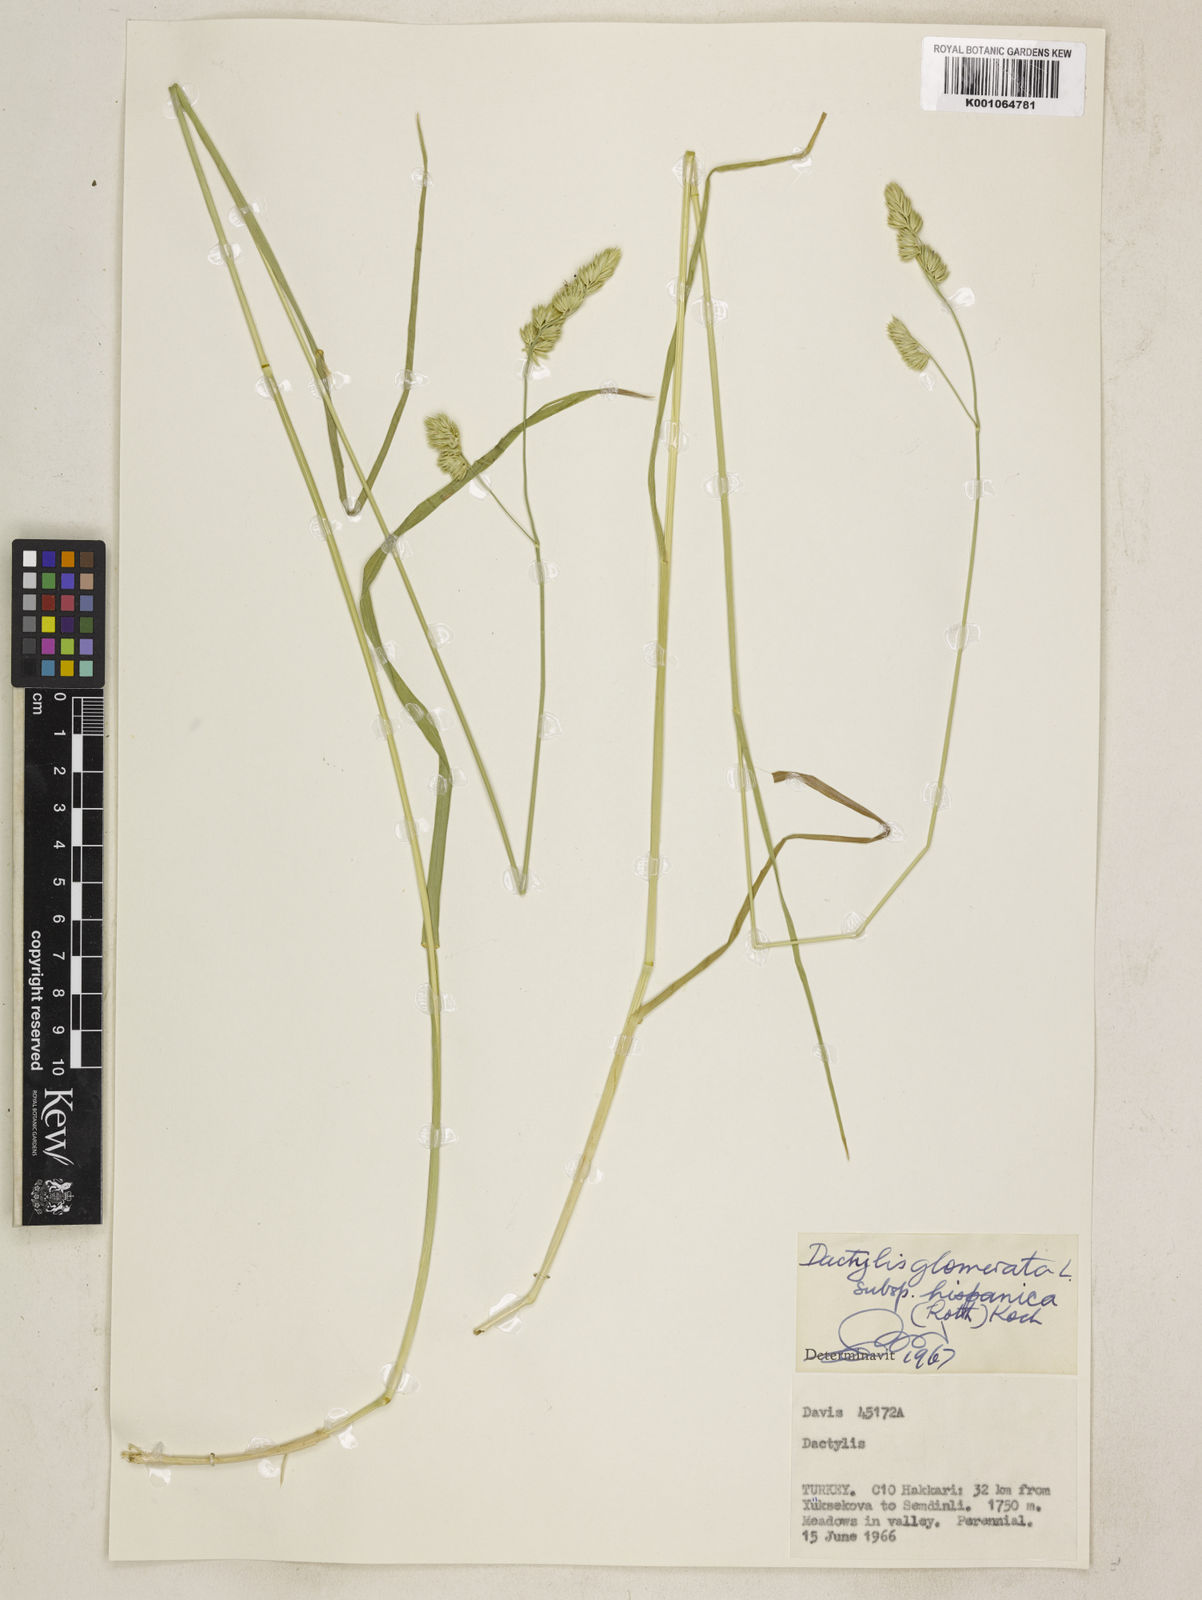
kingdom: Plantae
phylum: Tracheophyta
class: Liliopsida
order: Poales
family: Poaceae
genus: Dactylis
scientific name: Dactylis glomerata
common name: Orchardgrass
